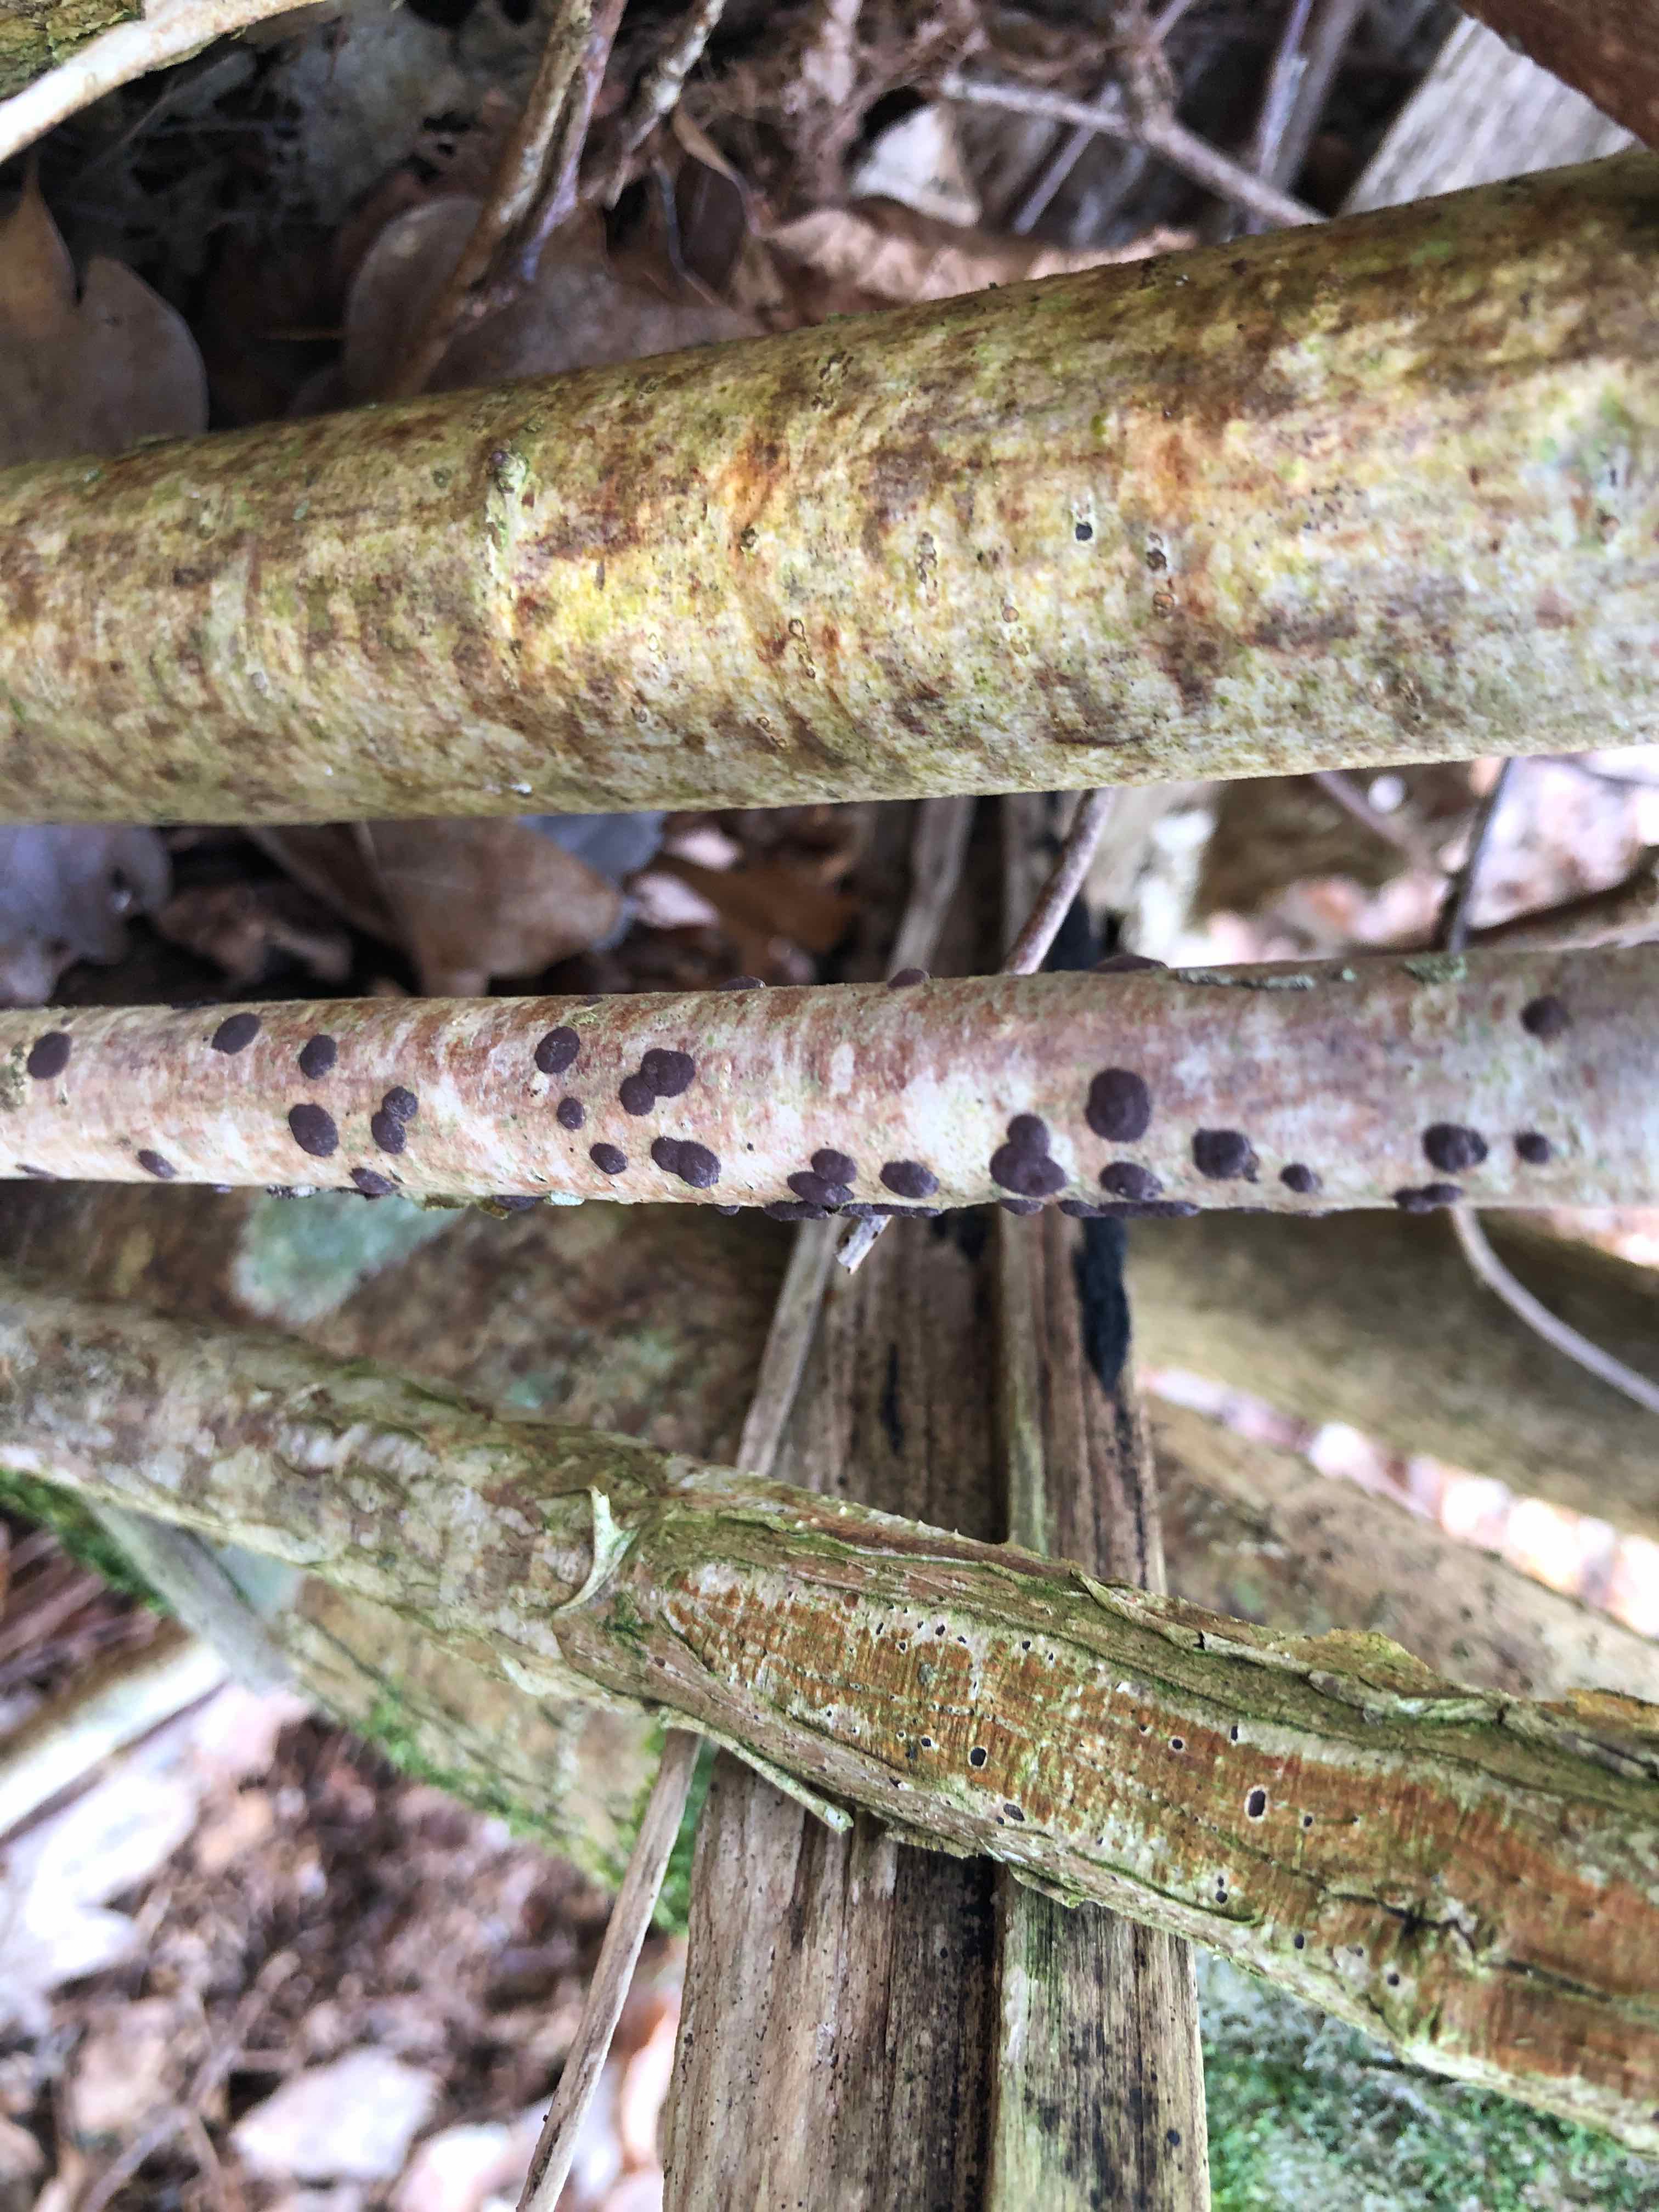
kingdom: Fungi
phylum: Ascomycota
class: Sordariomycetes
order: Xylariales
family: Hypoxylaceae
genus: Hypoxylon
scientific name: Hypoxylon fuscum
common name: kegleformet kulbær
